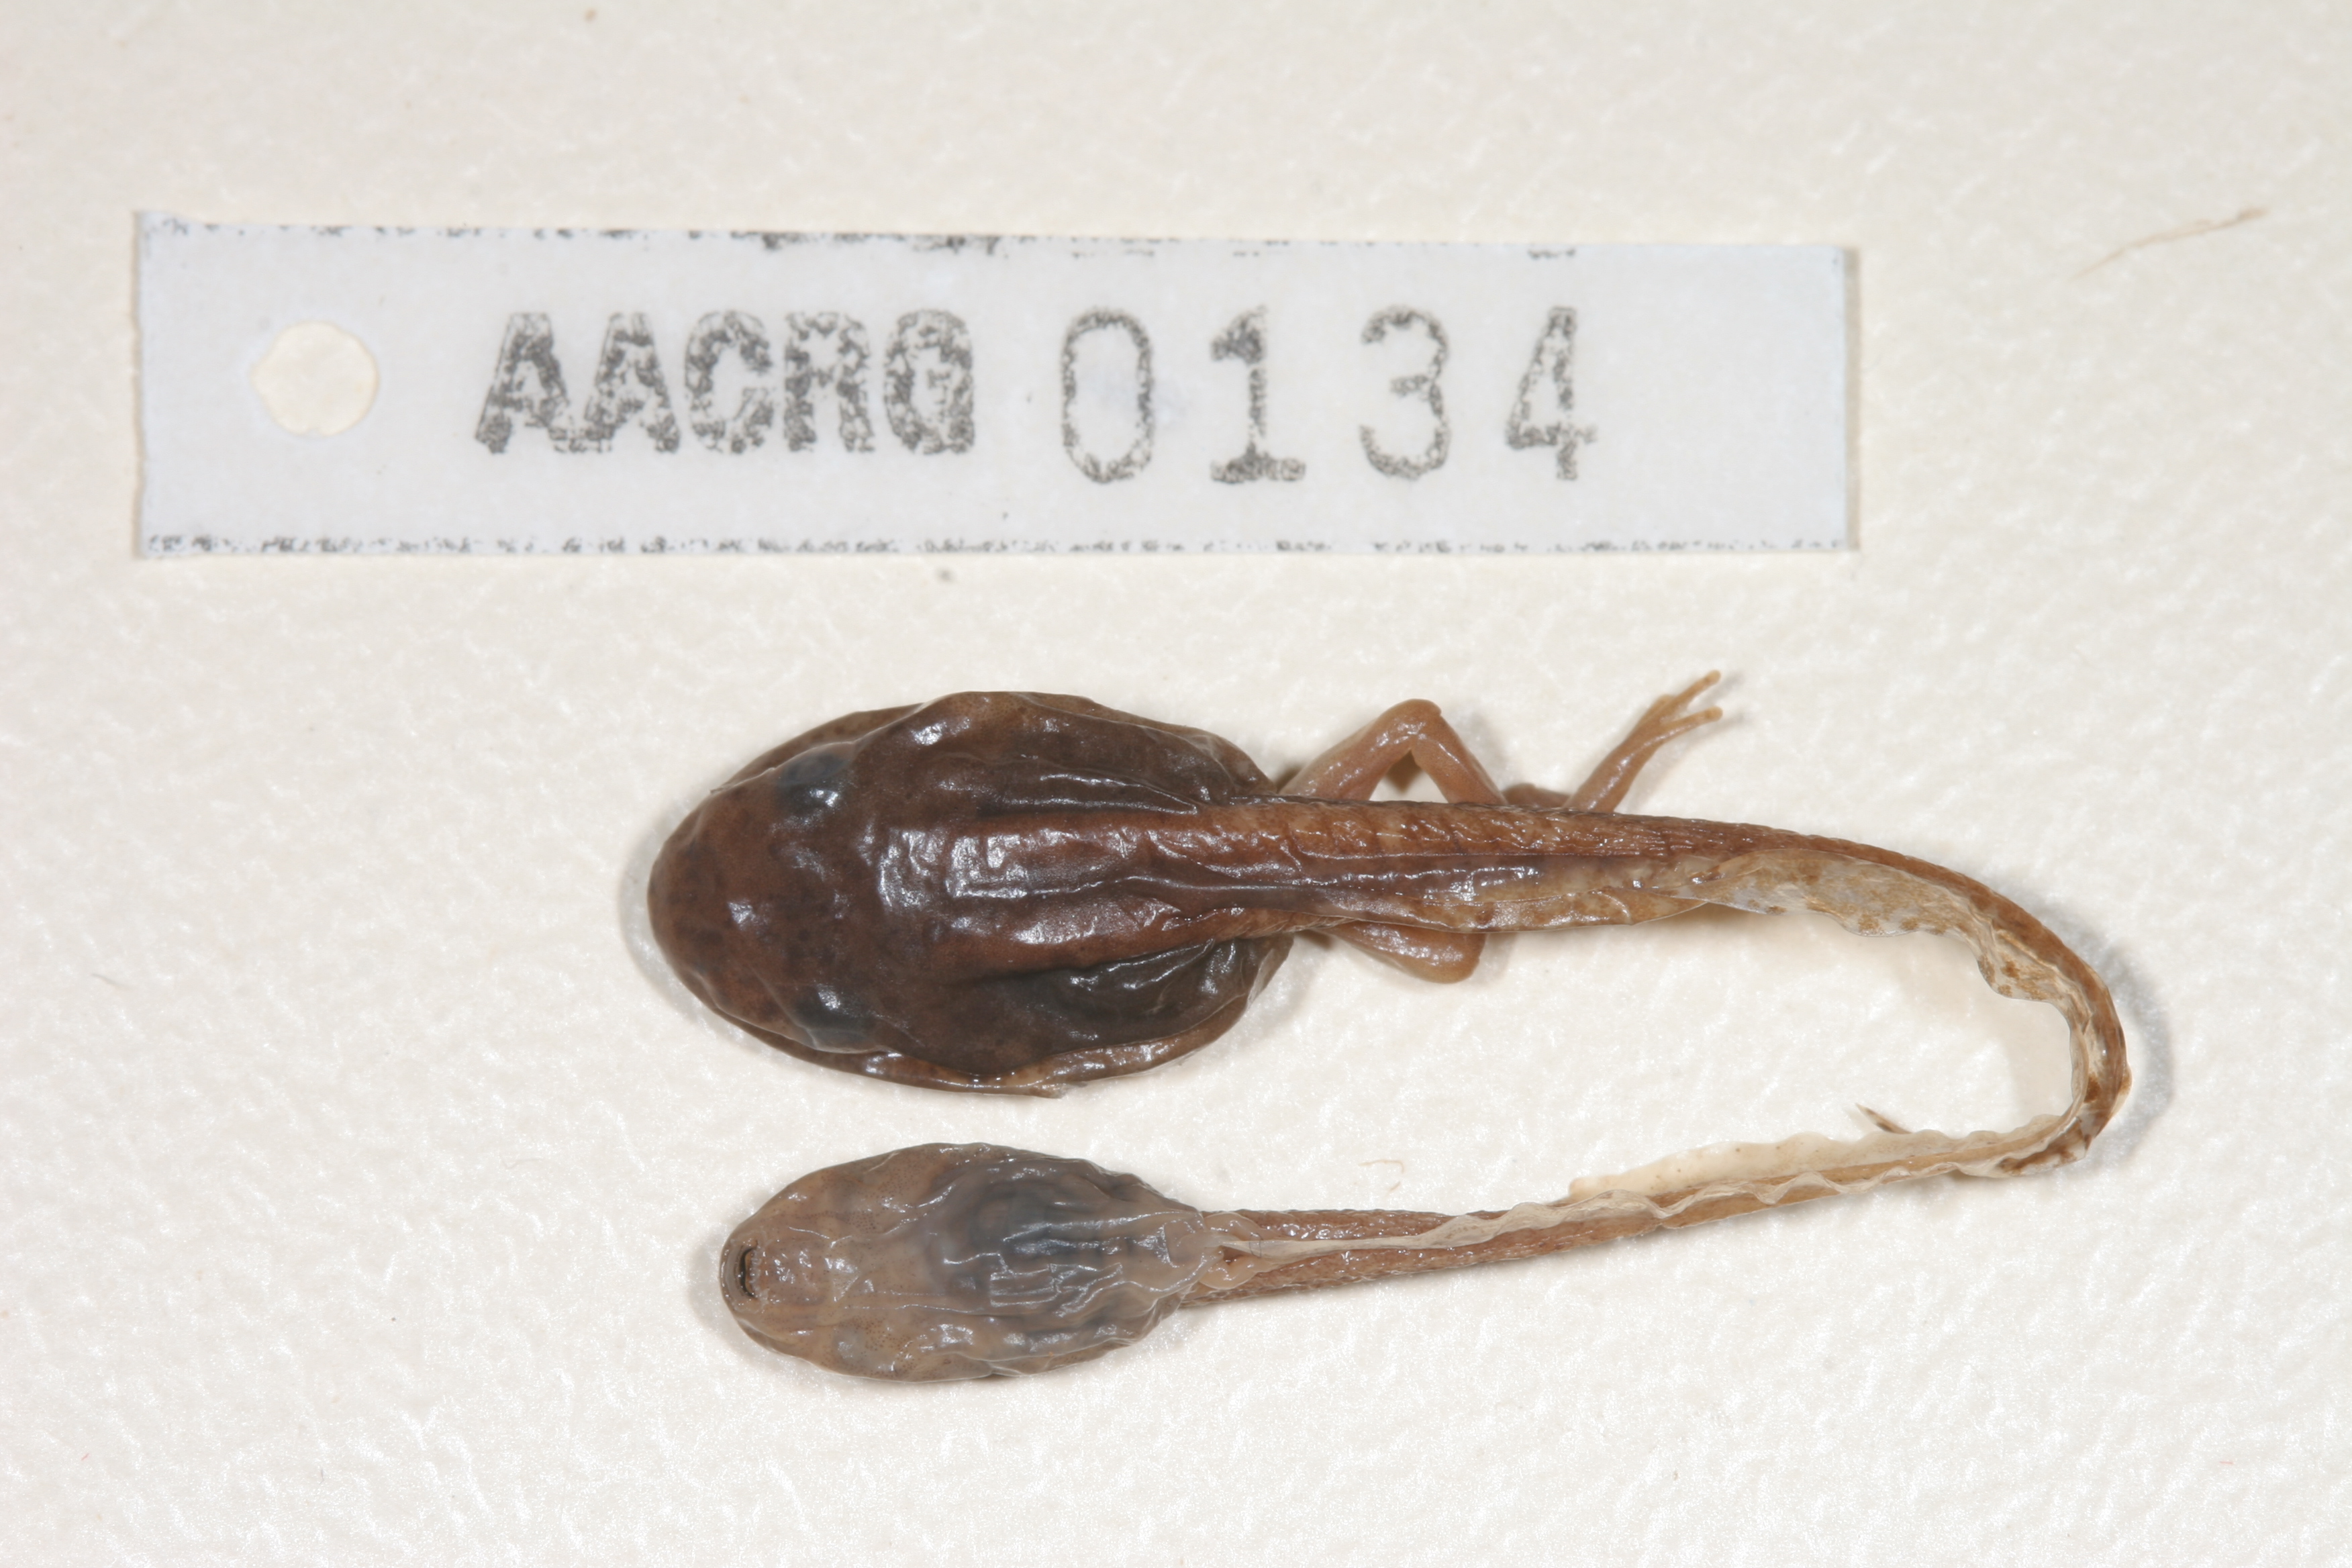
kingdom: Animalia
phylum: Chordata
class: Amphibia
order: Anura
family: Hyperoliidae
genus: Hyperolius
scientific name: Hyperolius semidiscus
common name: Yellow-striped reed frog
